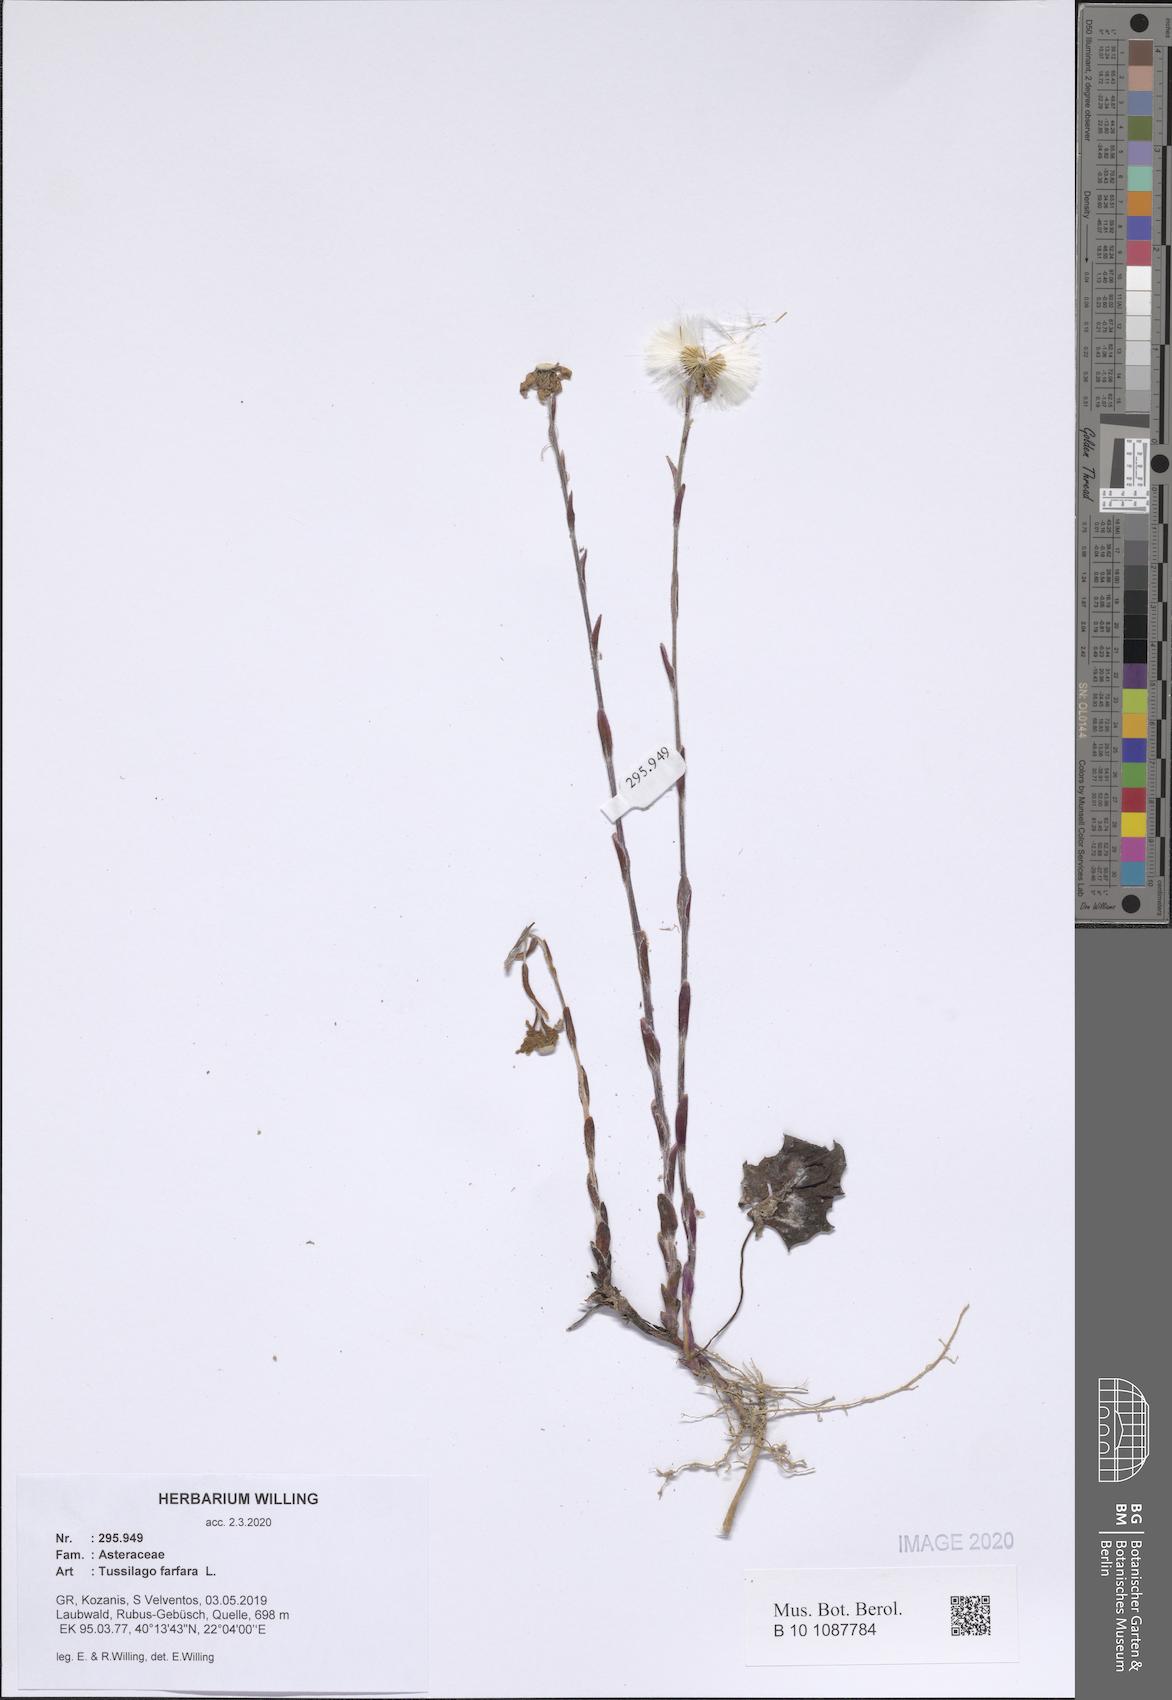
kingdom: Plantae
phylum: Tracheophyta
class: Magnoliopsida
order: Asterales
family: Asteraceae
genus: Tussilago
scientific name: Tussilago farfara
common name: Coltsfoot
